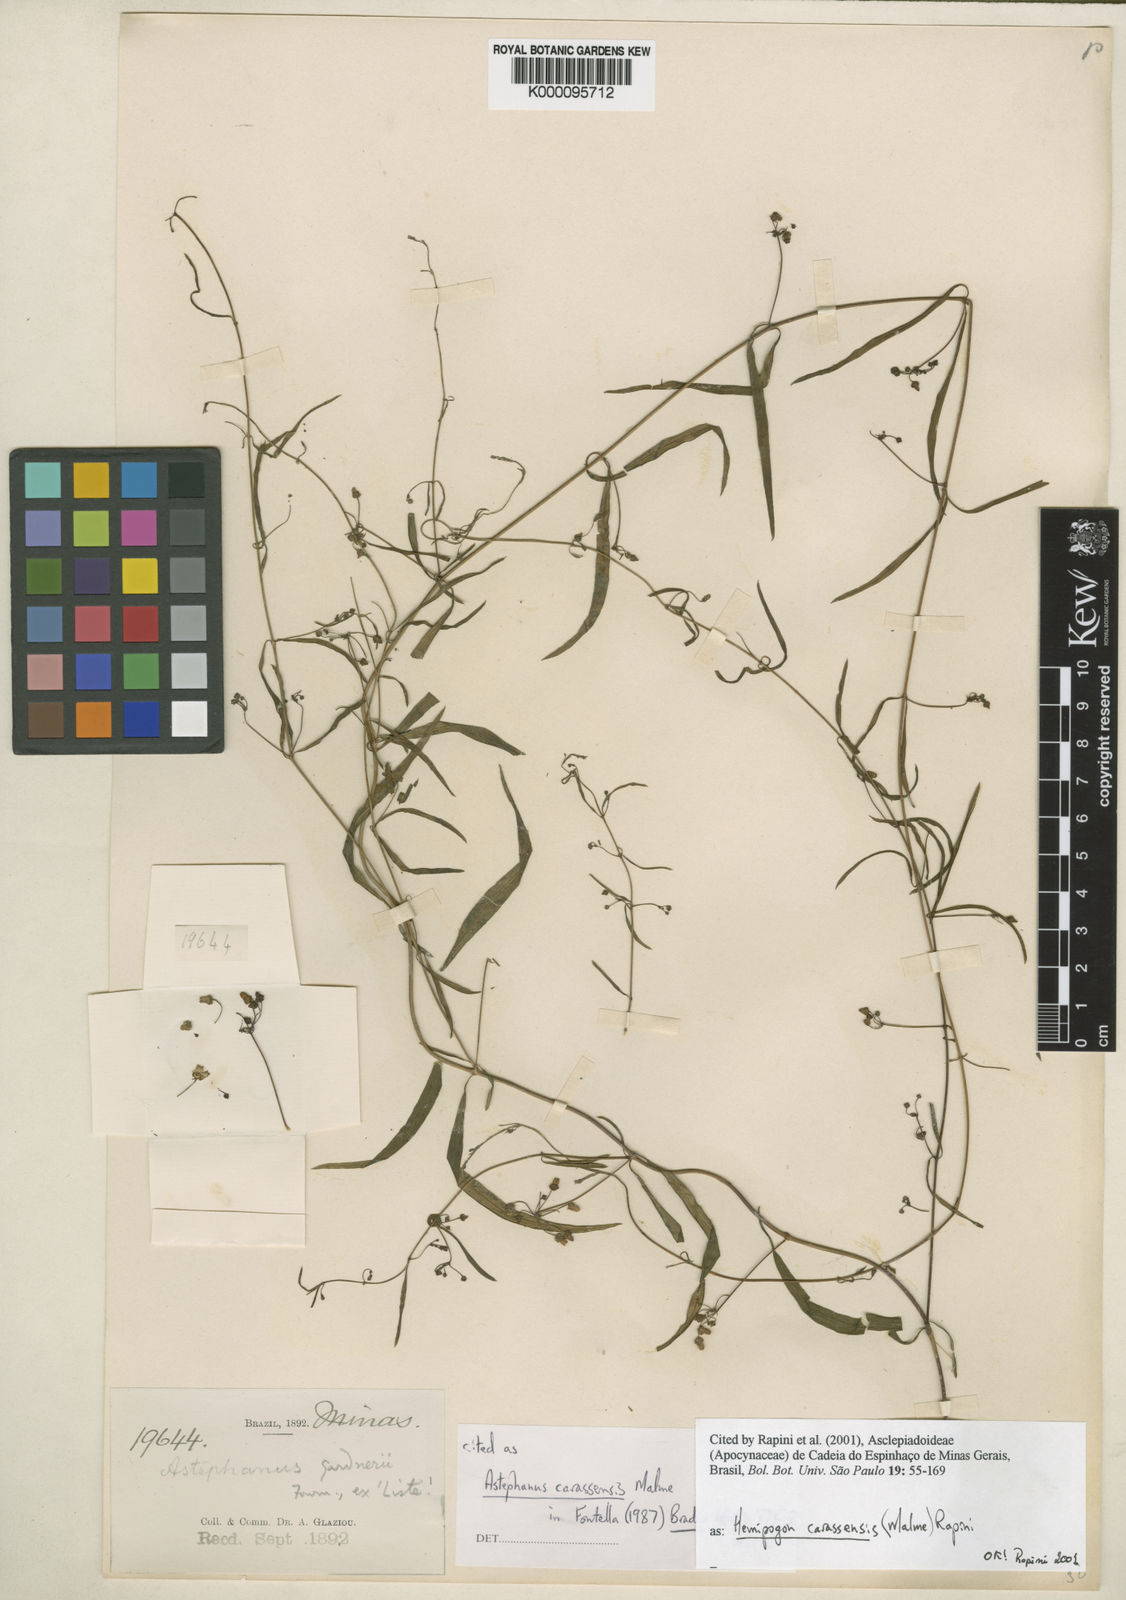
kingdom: Plantae
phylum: Tracheophyta
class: Magnoliopsida
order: Gentianales
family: Apocynaceae
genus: Morilloa
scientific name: Morilloa carassensis
